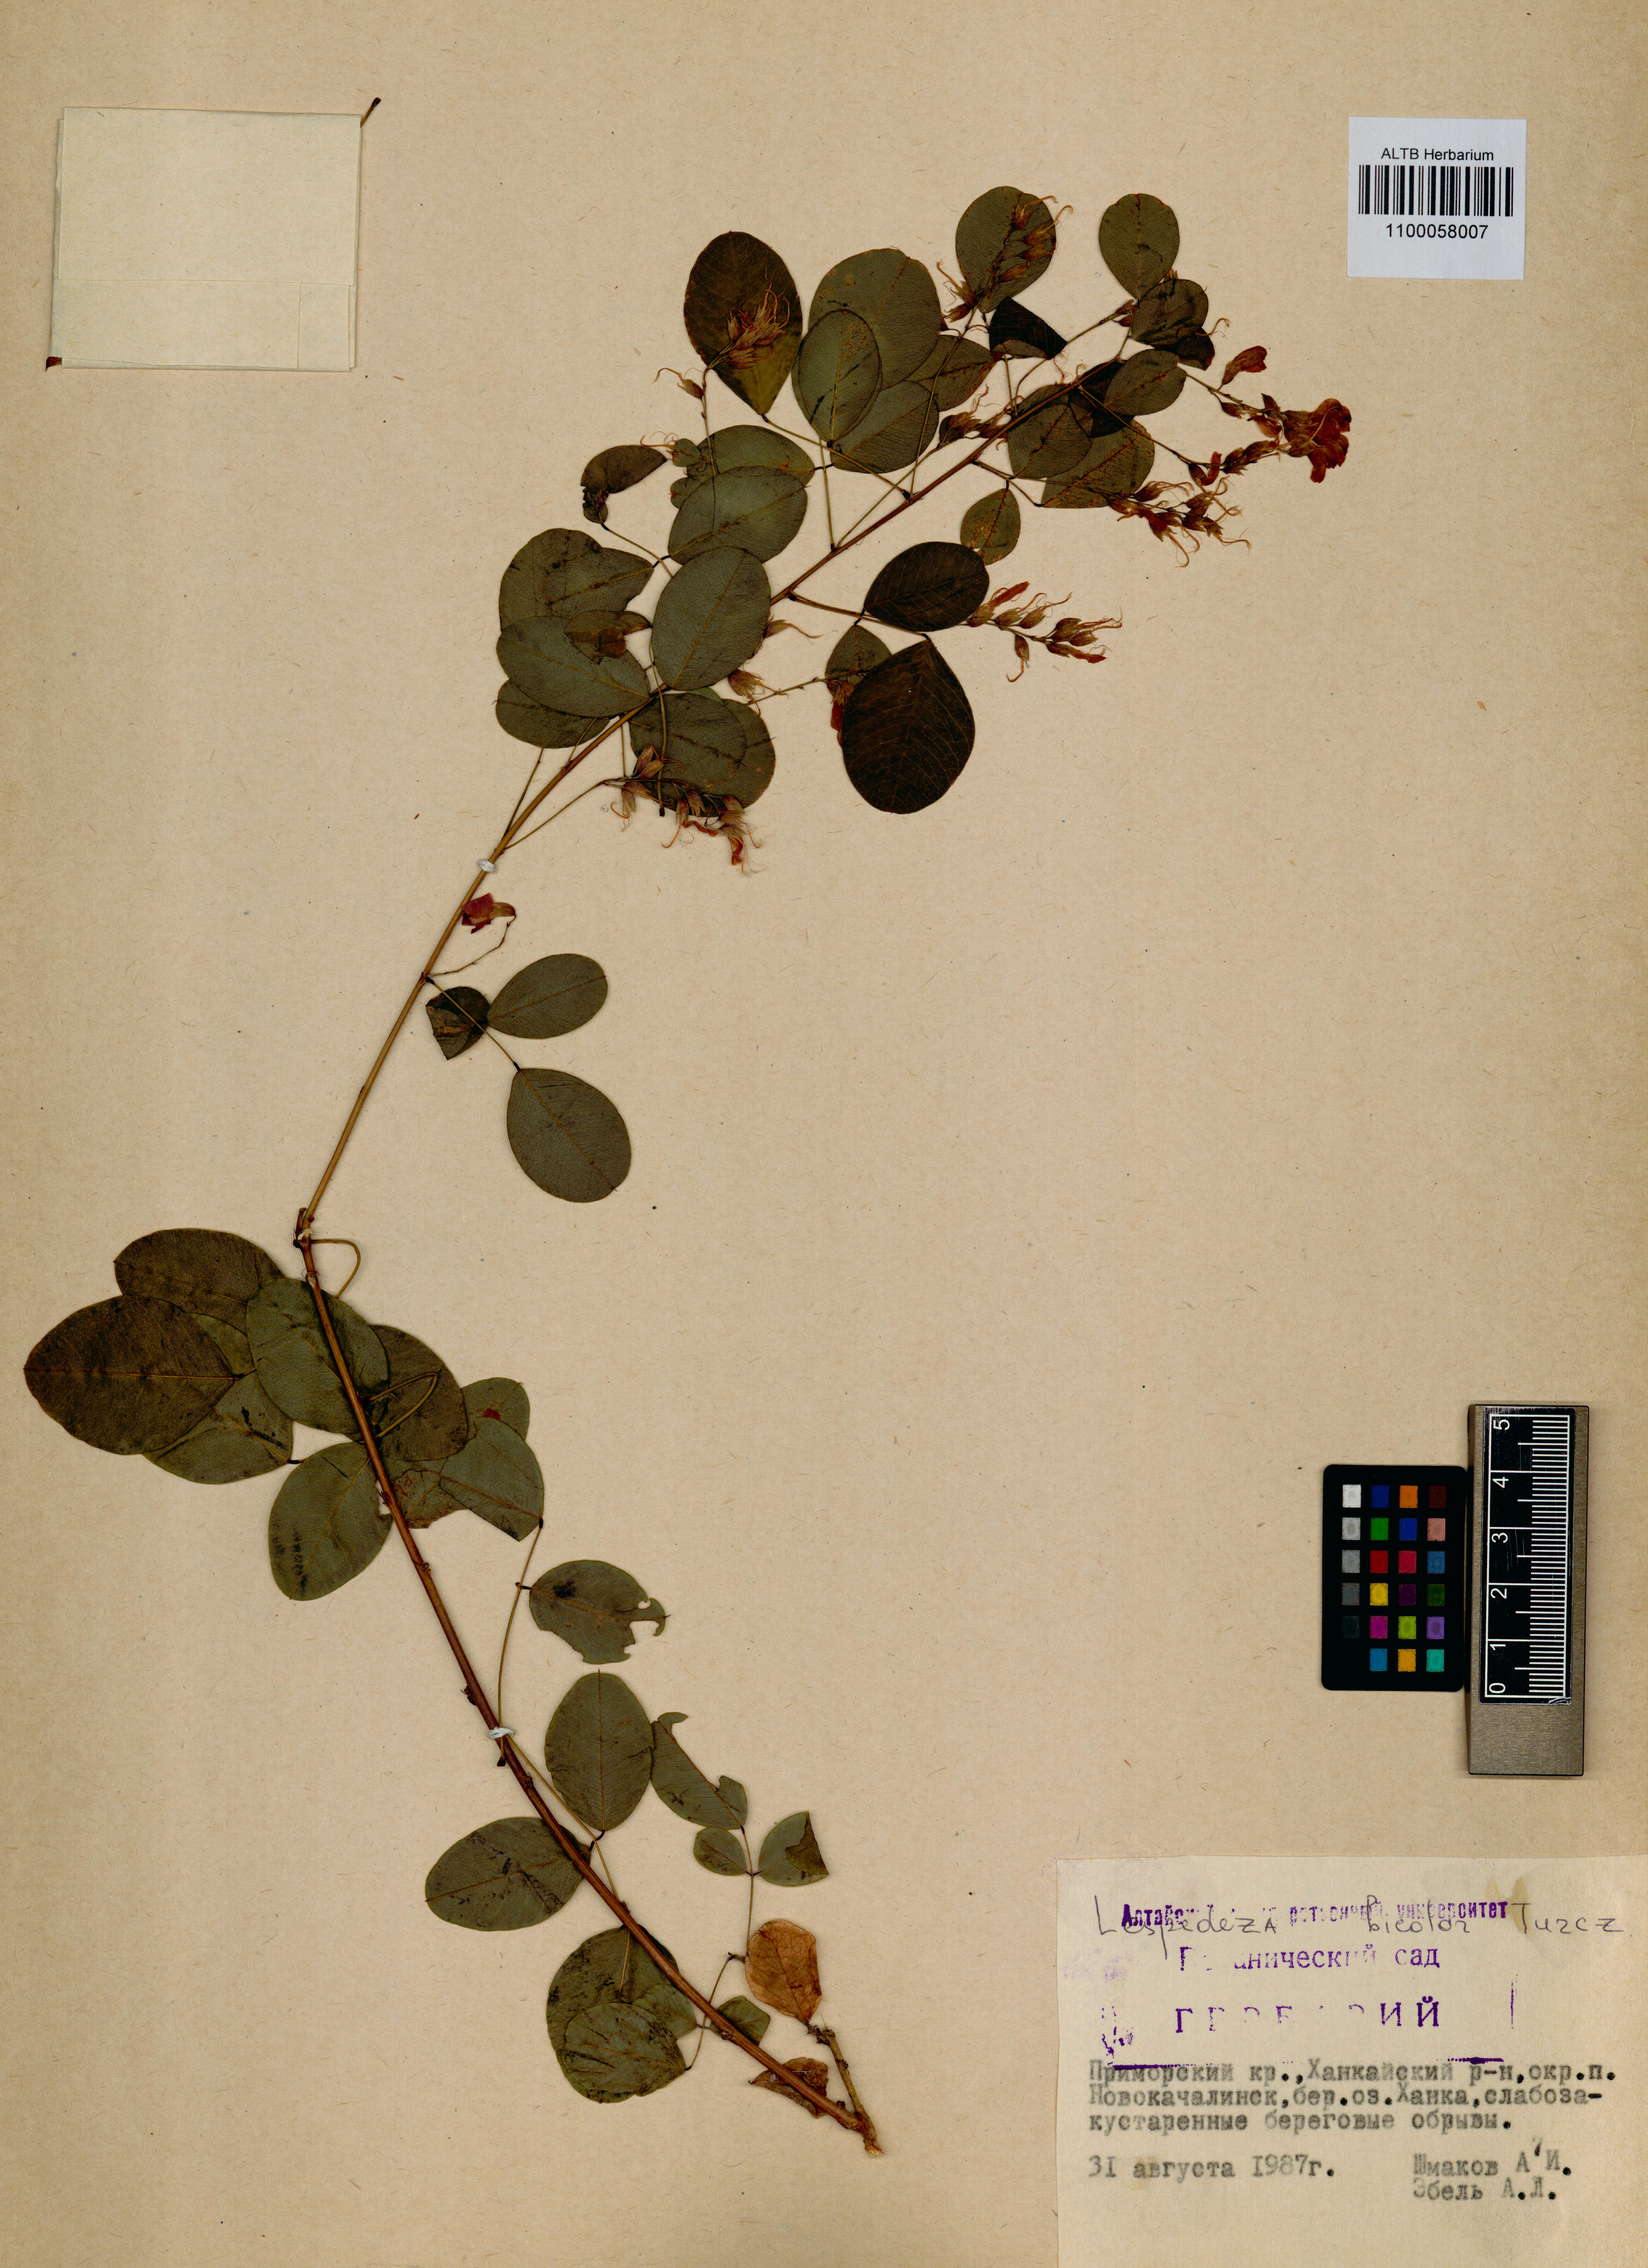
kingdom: Plantae
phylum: Tracheophyta
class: Magnoliopsida
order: Fabales
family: Fabaceae
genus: Lespedeza
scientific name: Lespedeza bicolor
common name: Shrub lespedeza
